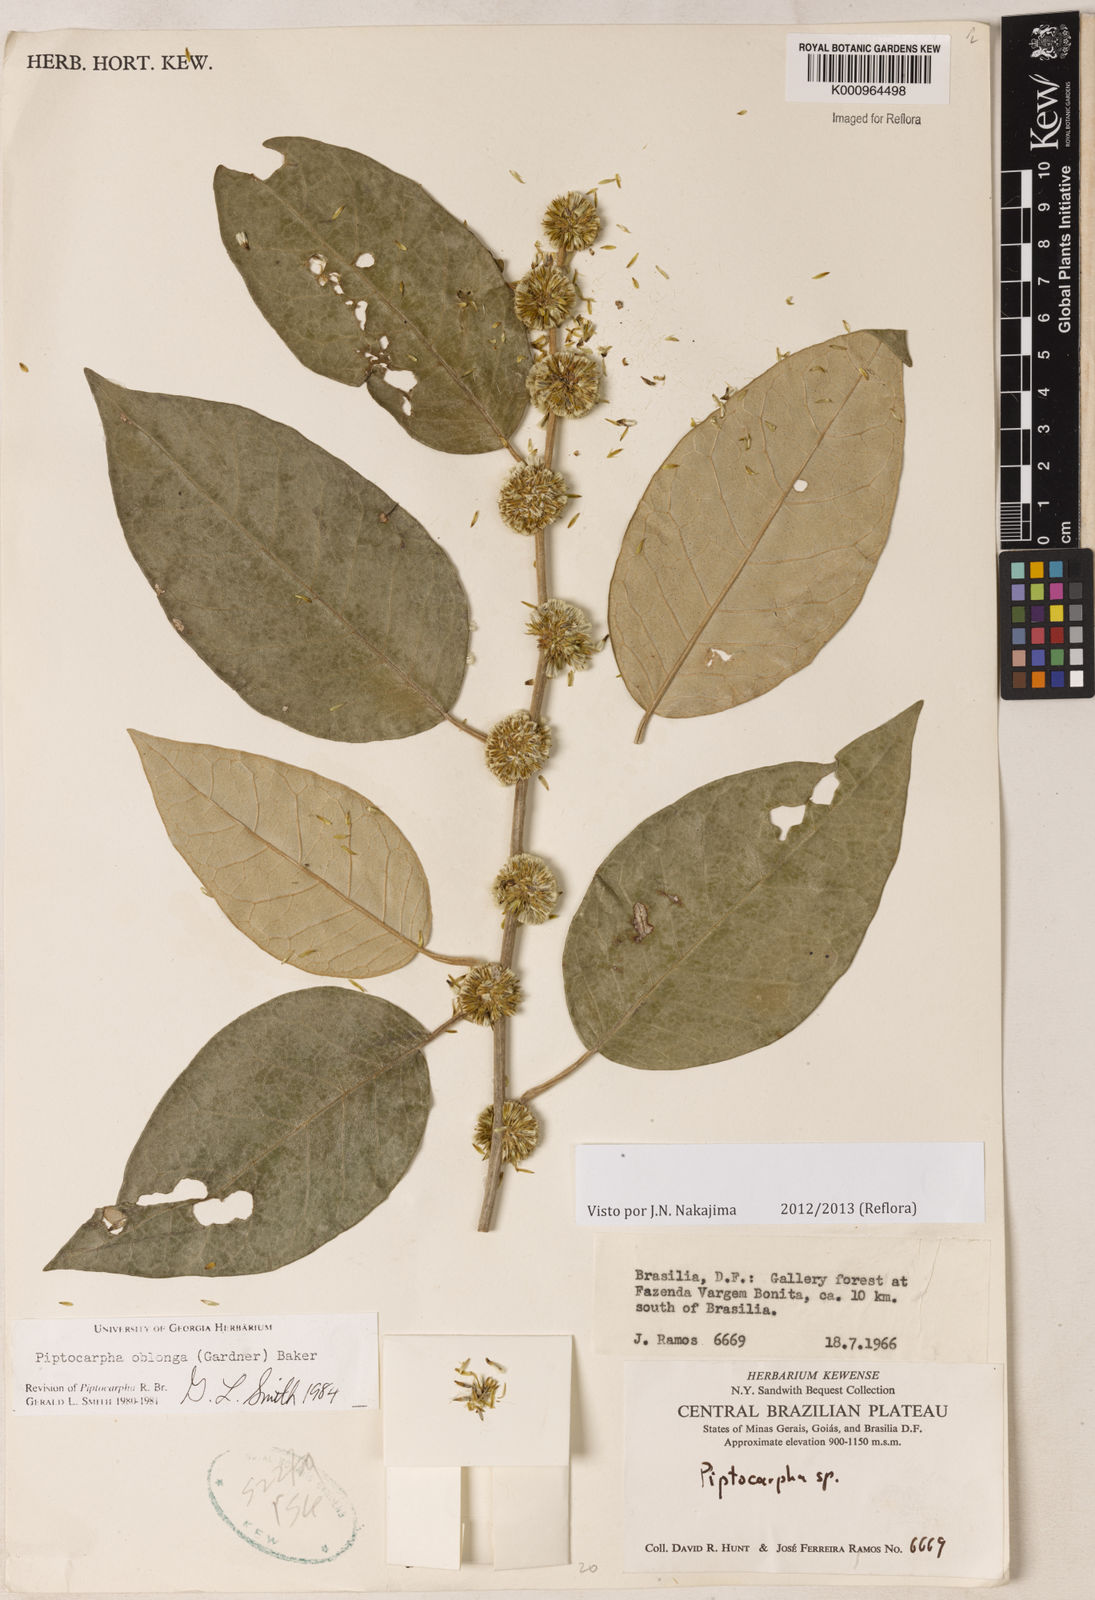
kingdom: Plantae
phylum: Tracheophyta
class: Magnoliopsida
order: Asterales
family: Asteraceae
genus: Piptocarpha
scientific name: Piptocarpha oblonga
